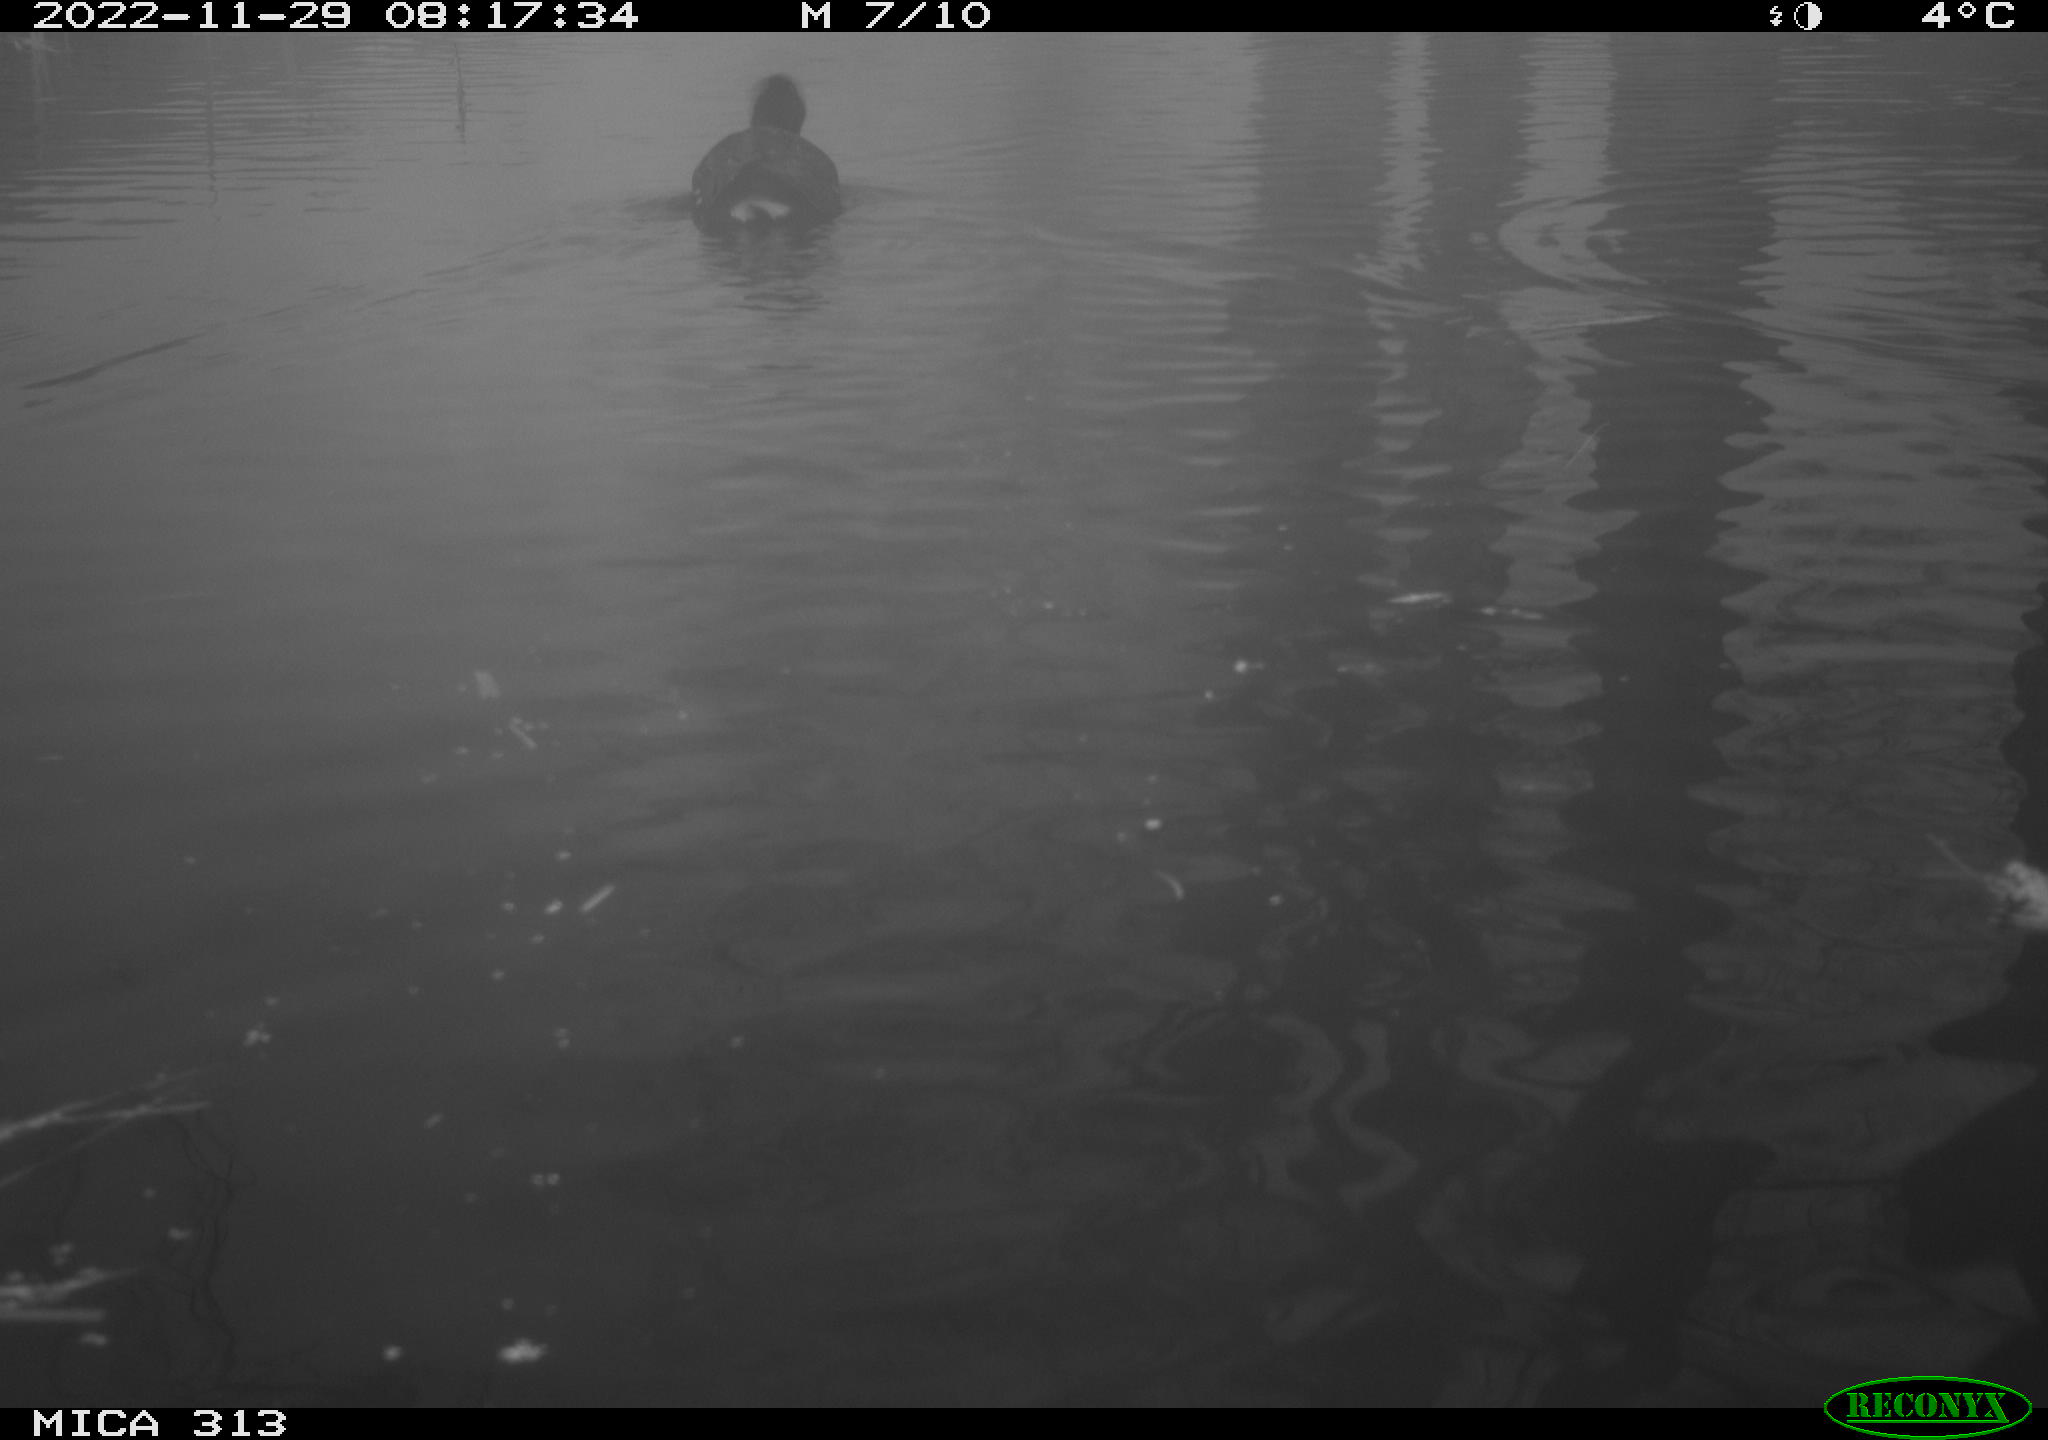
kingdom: Animalia
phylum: Chordata
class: Aves
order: Anseriformes
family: Anatidae
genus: Anas
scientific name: Anas
